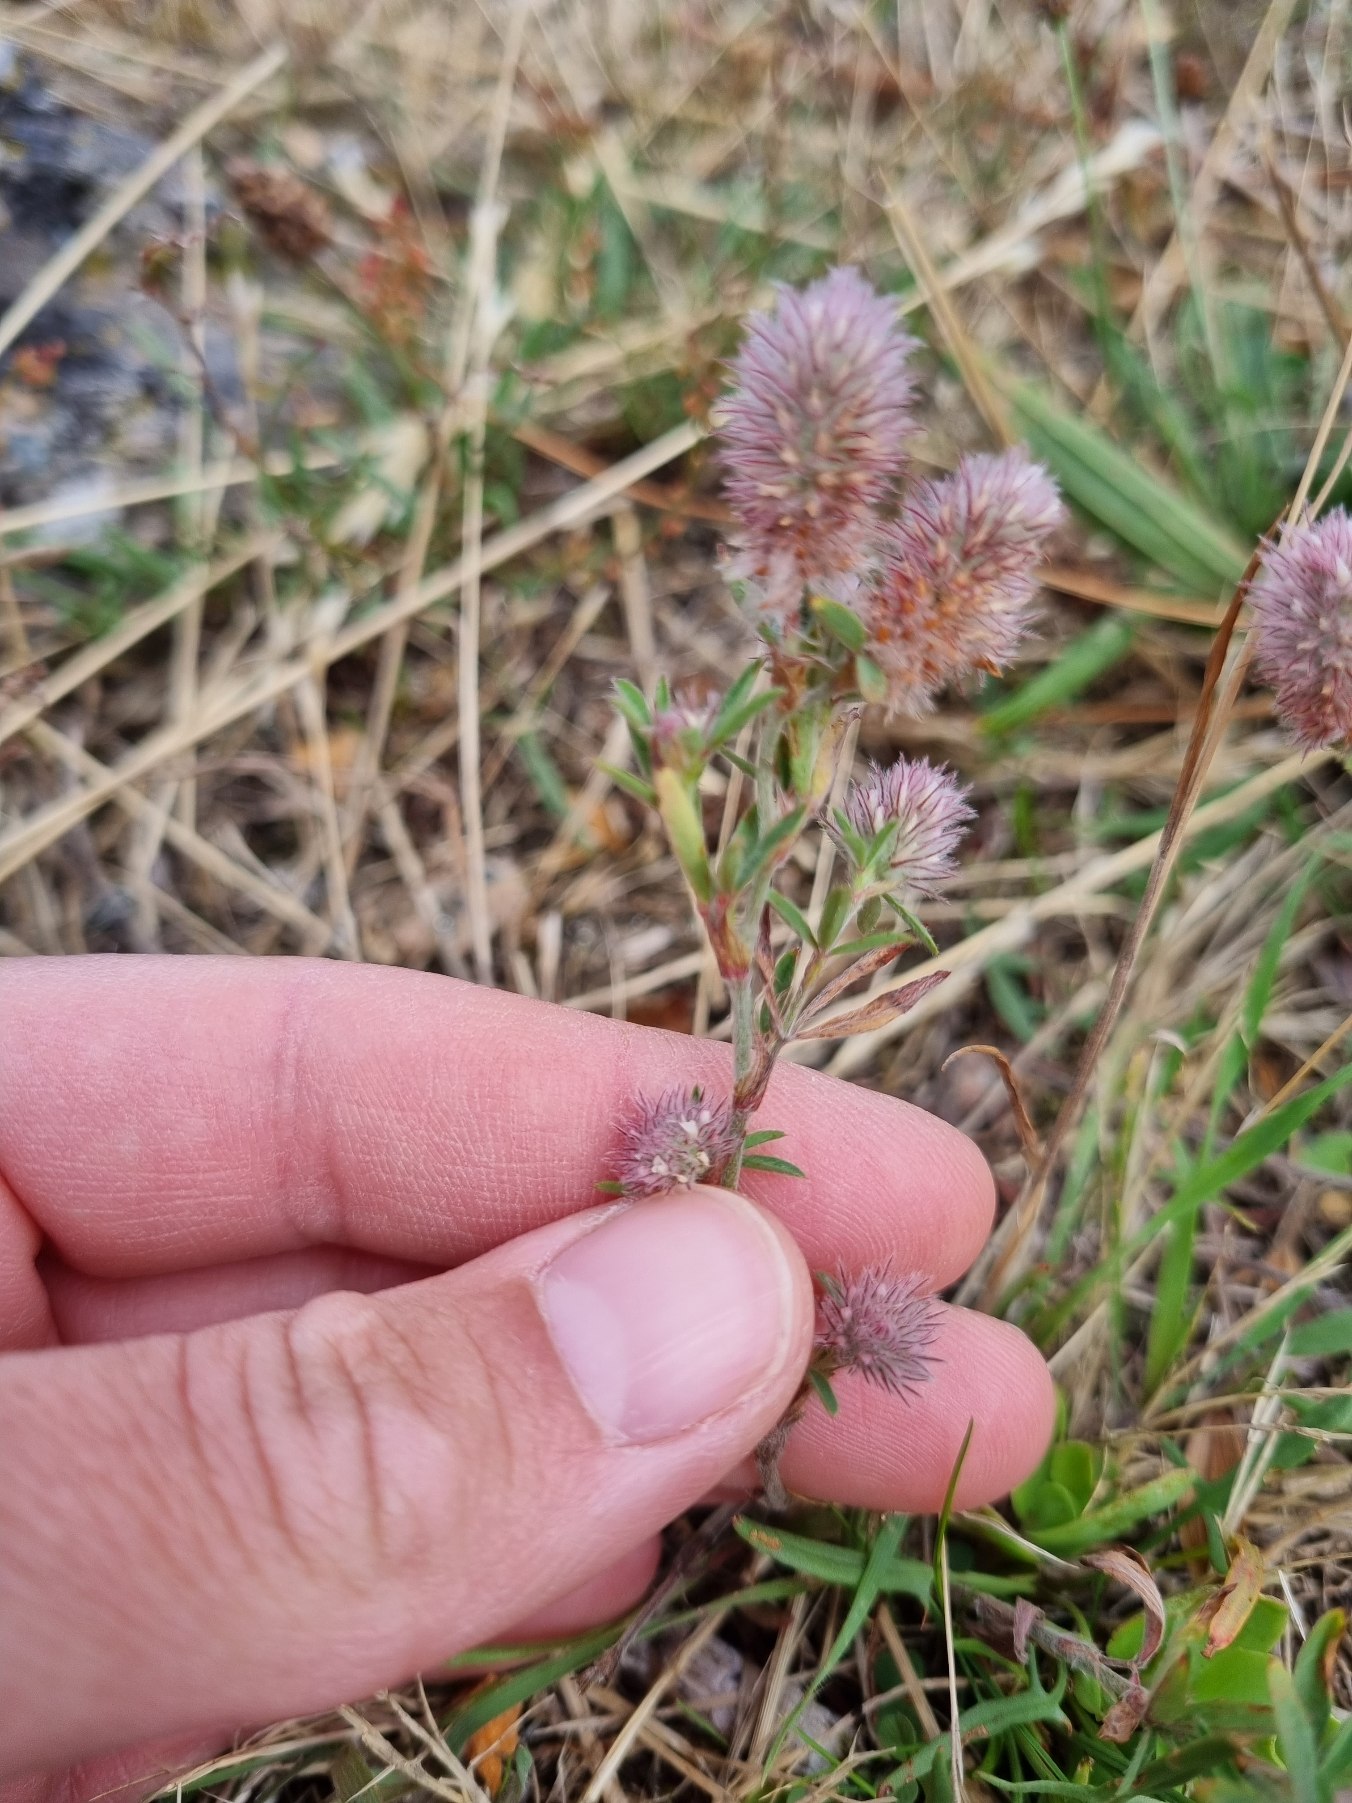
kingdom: Plantae
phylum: Tracheophyta
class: Magnoliopsida
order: Fabales
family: Fabaceae
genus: Trifolium
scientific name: Trifolium arvense
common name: Hare-kløver
